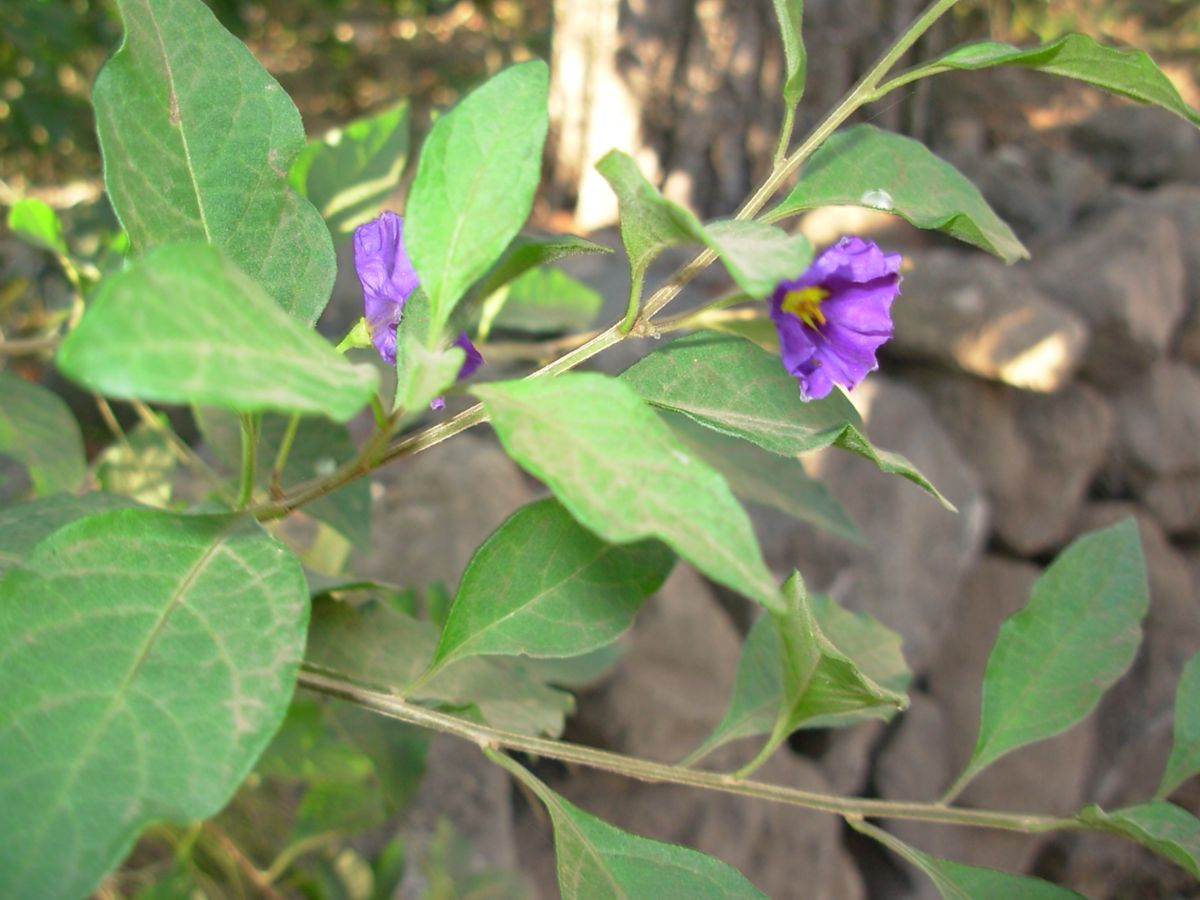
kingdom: Plantae
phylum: Tracheophyta
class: Magnoliopsida
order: Solanales
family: Solanaceae
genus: Lycianthes
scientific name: Lycianthes rantonnetii
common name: Blue potatobush
